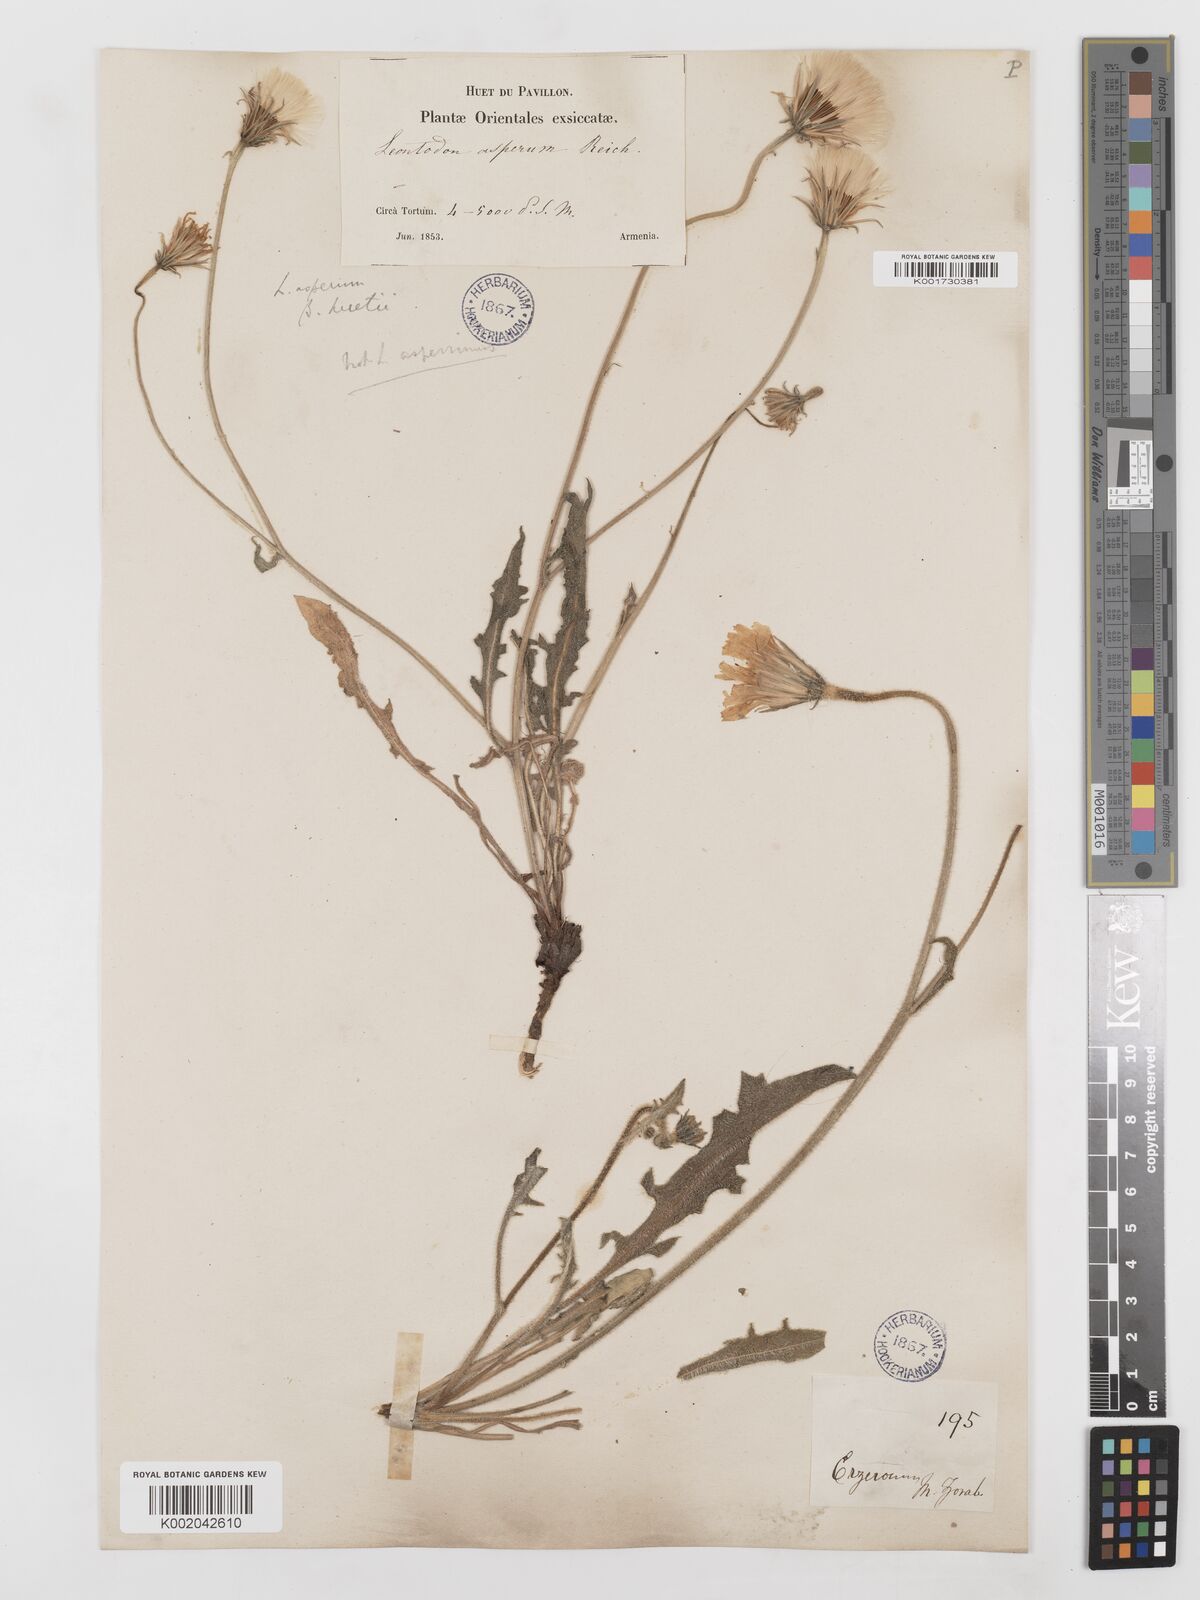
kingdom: Plantae
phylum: Tracheophyta
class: Magnoliopsida
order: Asterales
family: Asteraceae
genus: Leontodon
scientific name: Leontodon
